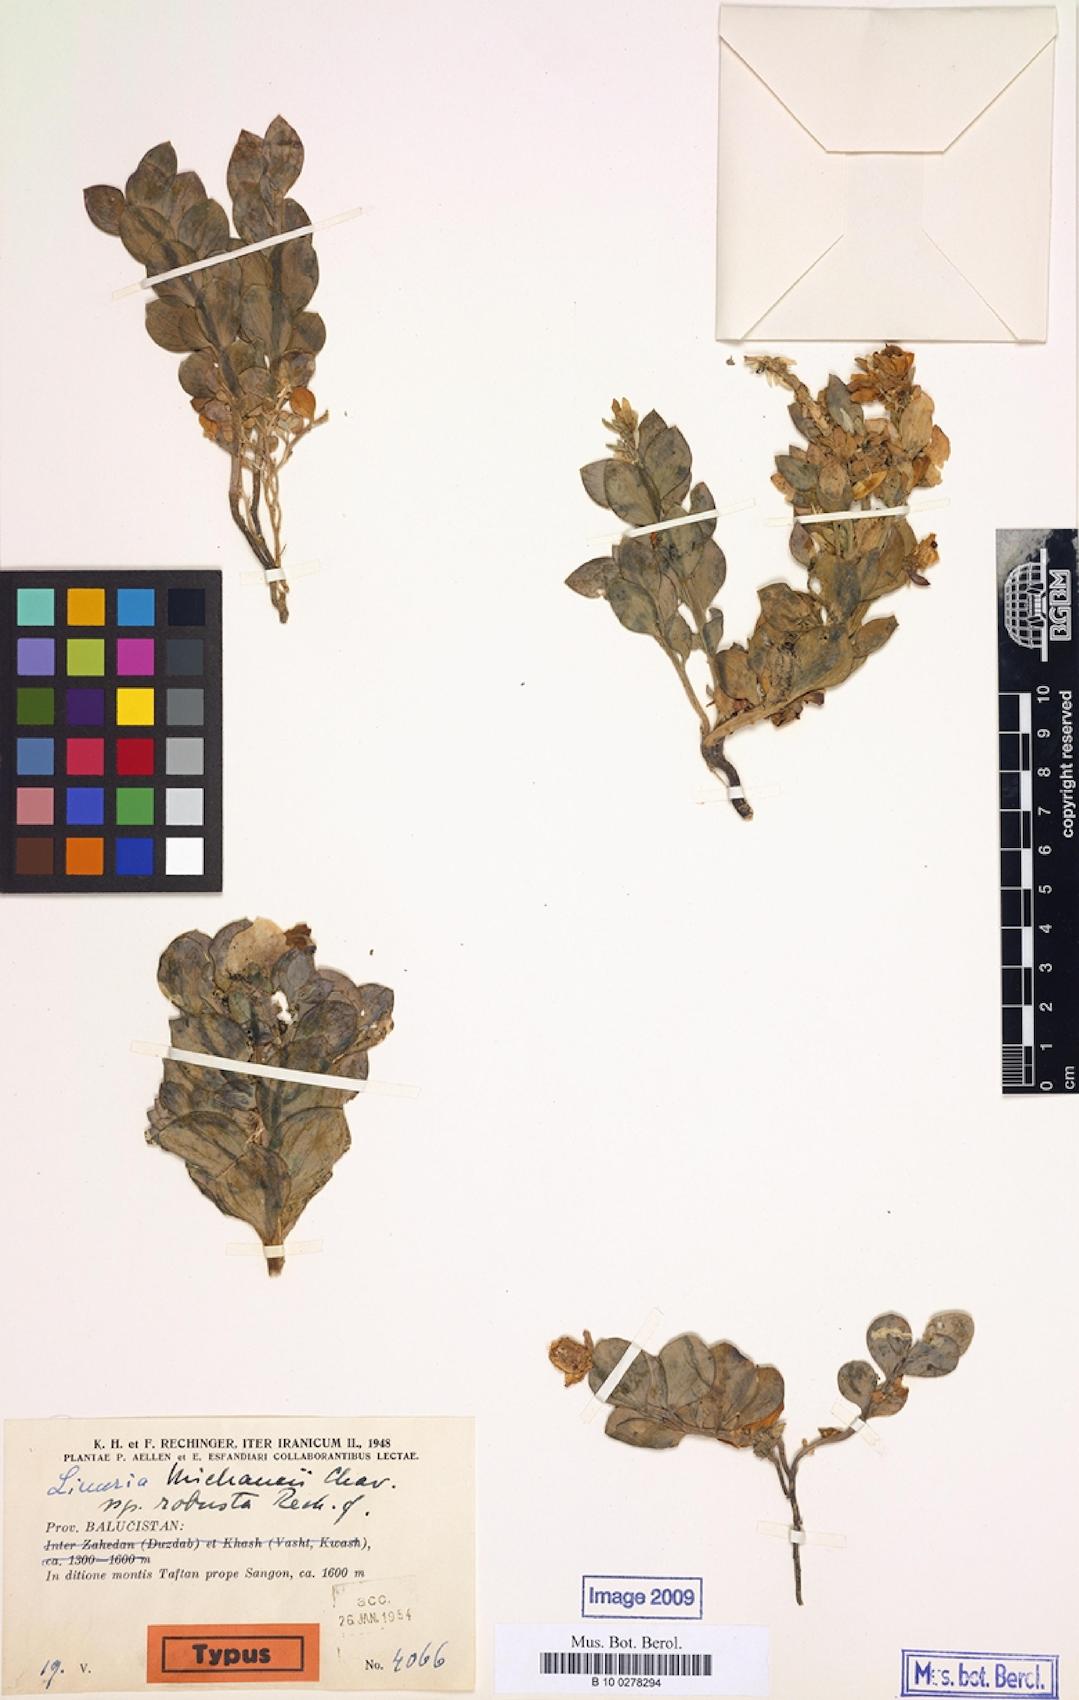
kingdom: Plantae
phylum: Tracheophyta
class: Magnoliopsida
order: Lamiales
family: Plantaginaceae
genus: Linaria
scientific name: Linaria michauxii
